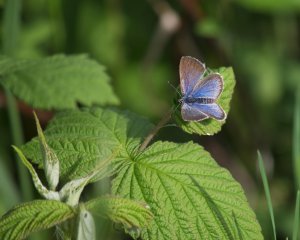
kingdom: Animalia
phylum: Arthropoda
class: Insecta
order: Lepidoptera
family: Lycaenidae
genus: Glaucopsyche
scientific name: Glaucopsyche lygdamus
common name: Silvery Blue
